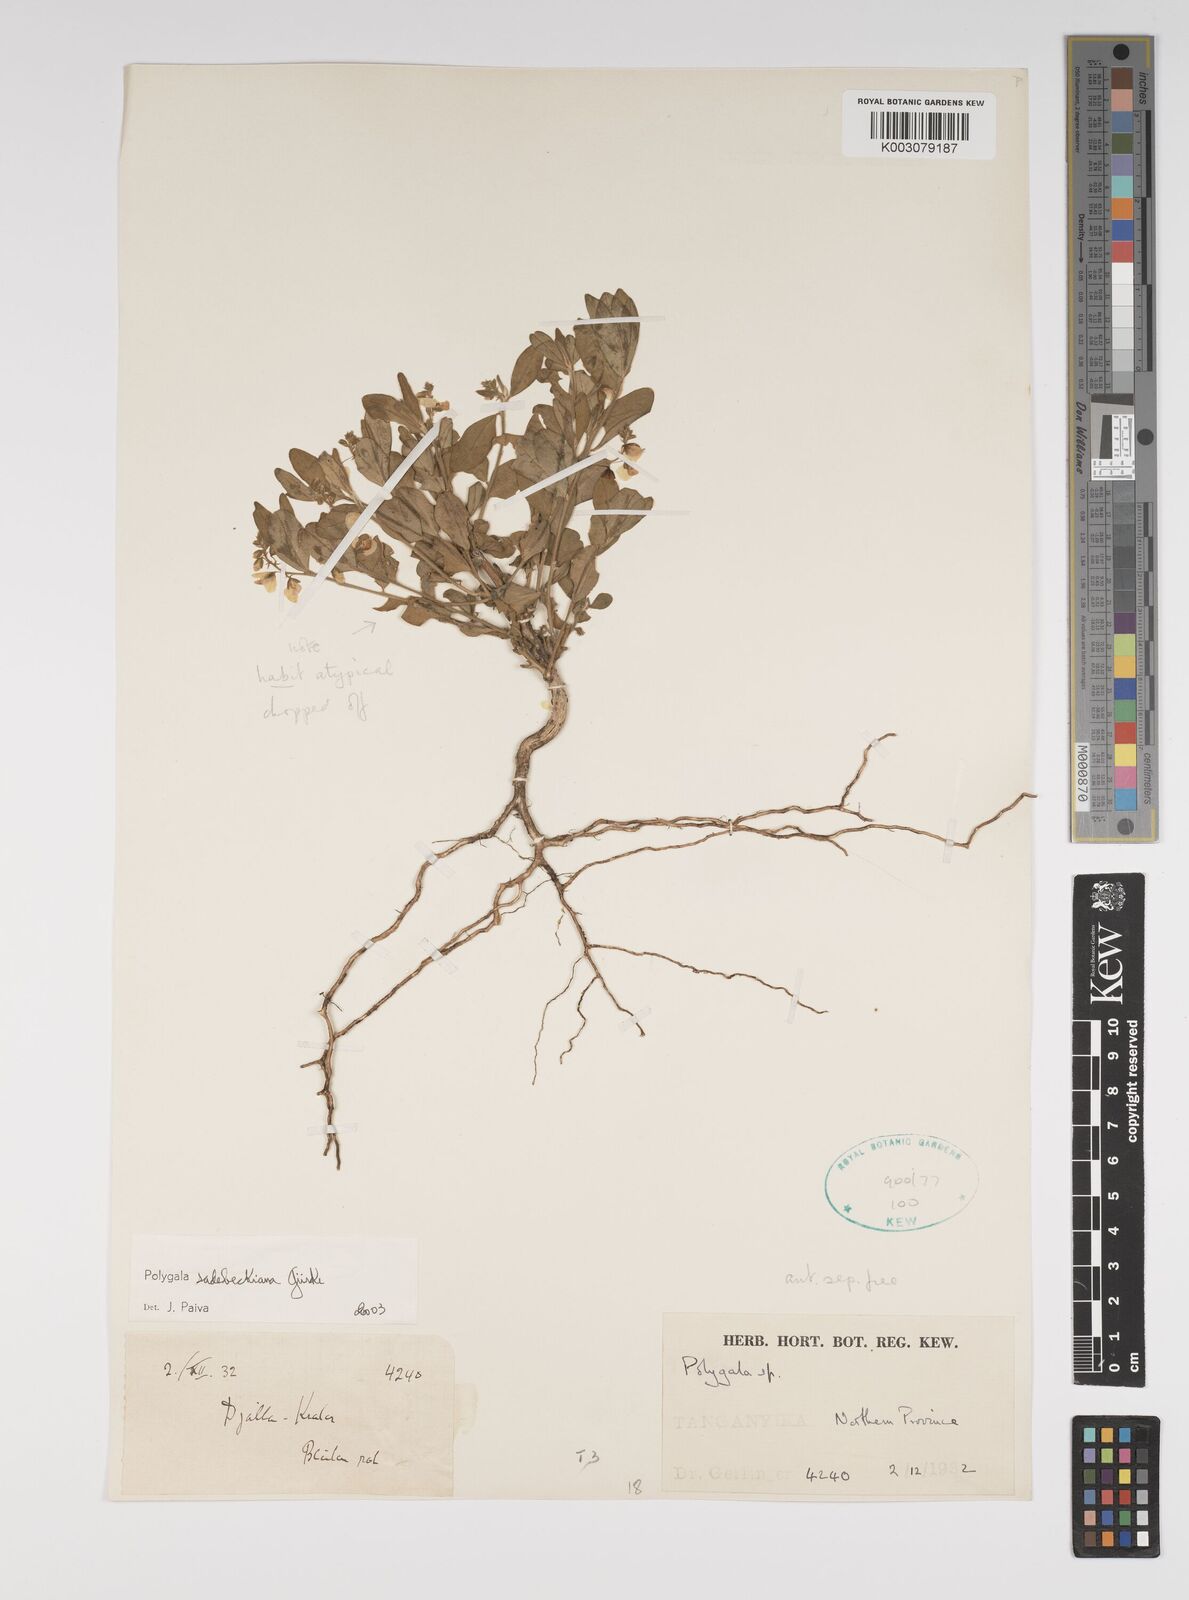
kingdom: Plantae
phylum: Tracheophyta
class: Magnoliopsida
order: Fabales
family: Polygalaceae
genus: Polygala
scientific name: Polygala sadebeckiana
